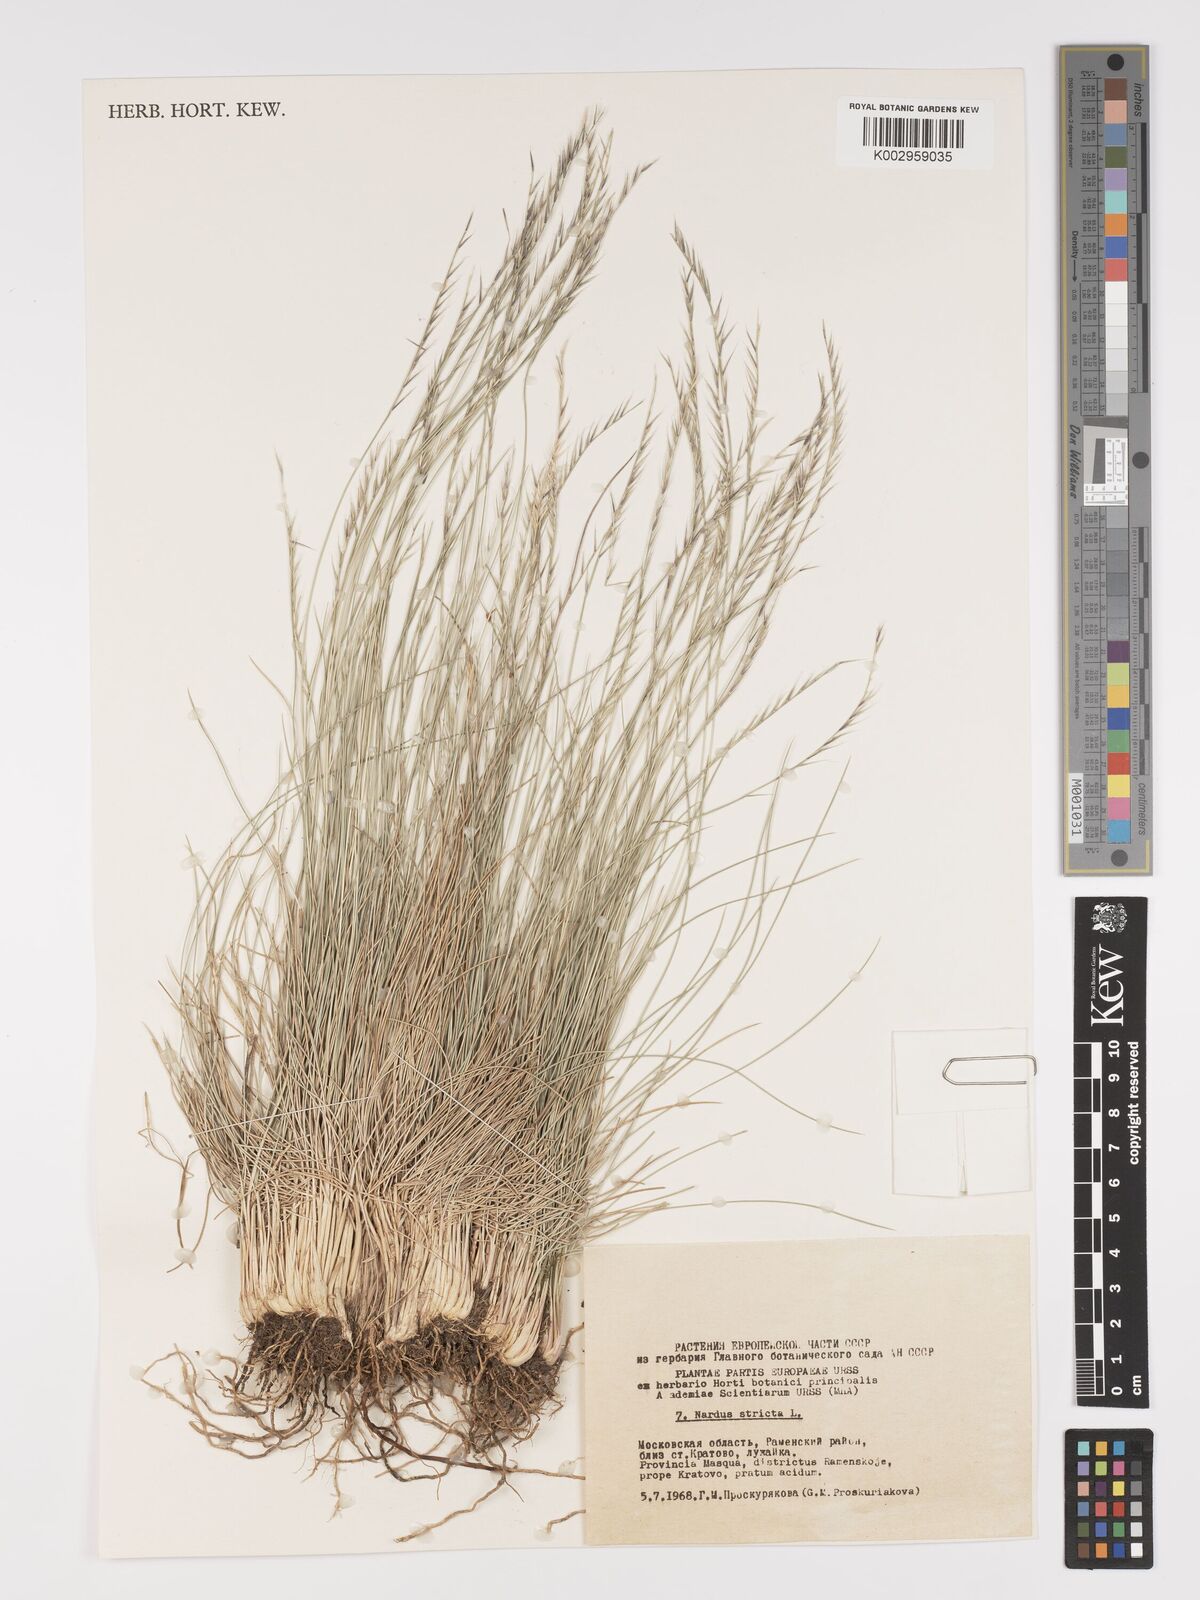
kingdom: Plantae
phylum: Tracheophyta
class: Liliopsida
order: Poales
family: Poaceae
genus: Nardus
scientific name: Nardus stricta
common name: Mat-grass
